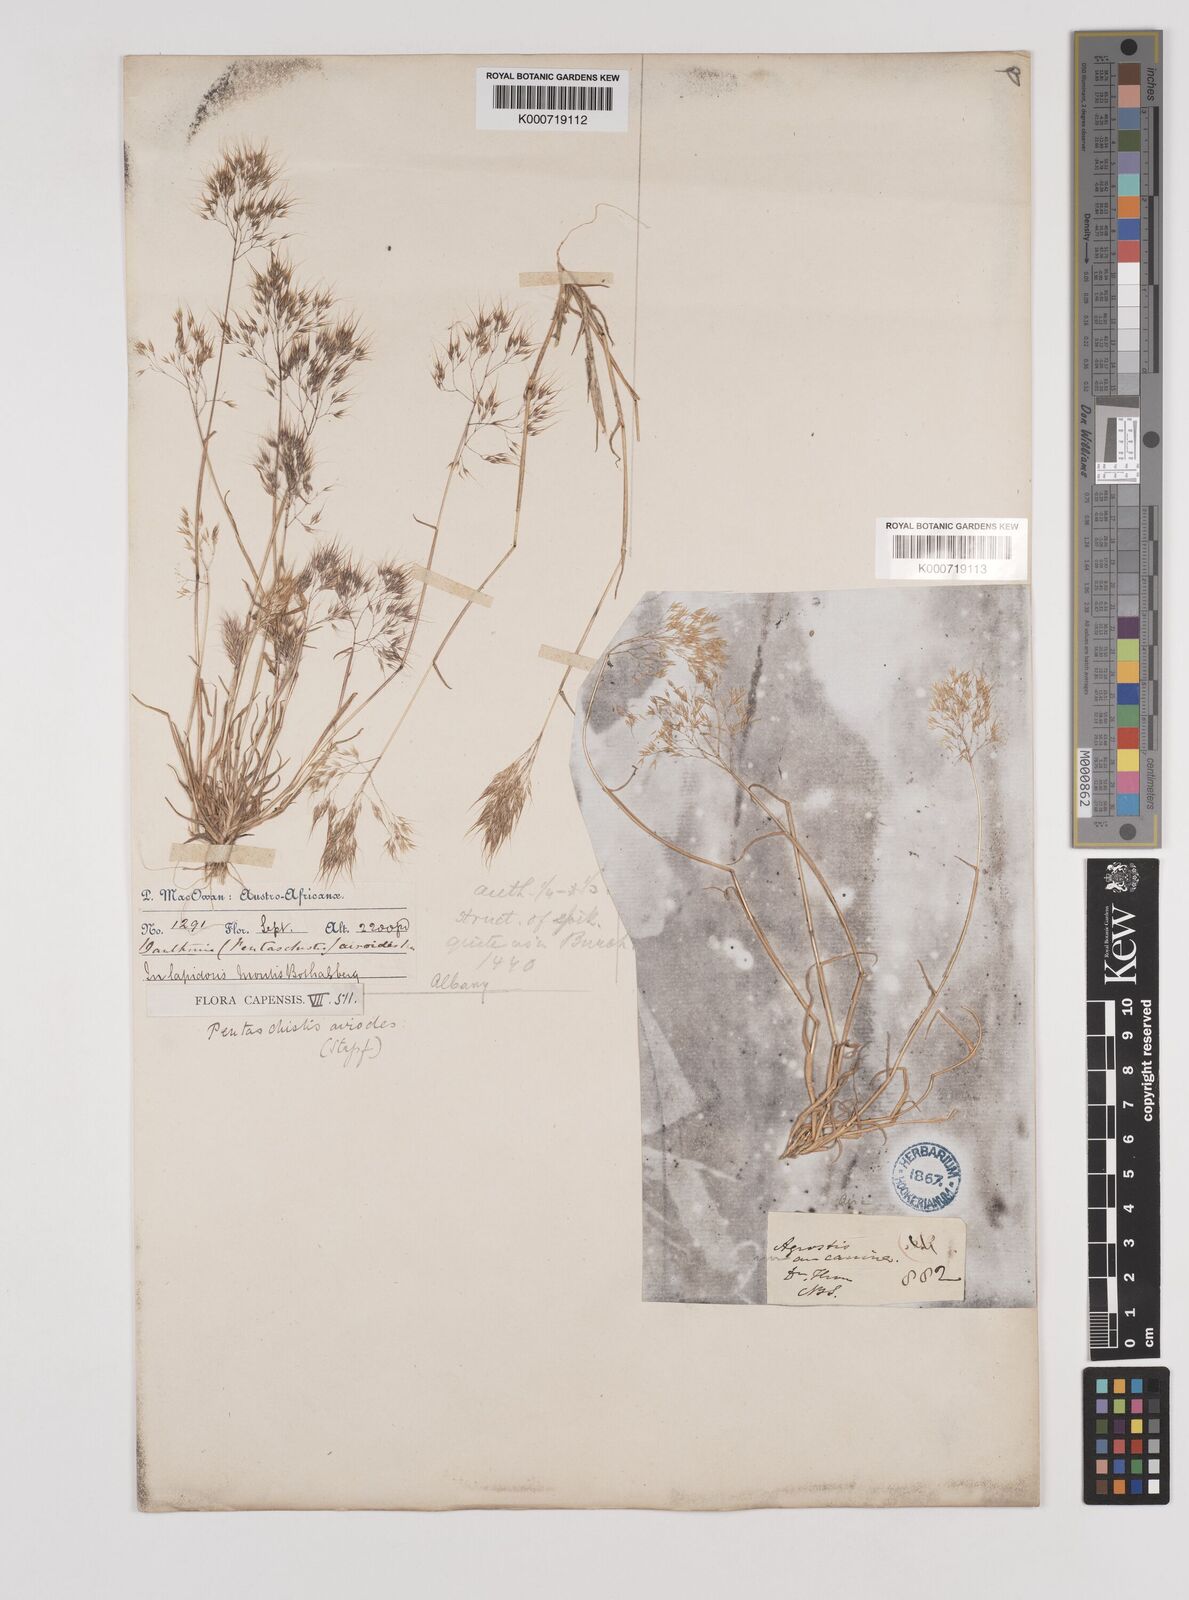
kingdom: Plantae
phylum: Tracheophyta
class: Liliopsida
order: Poales
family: Poaceae
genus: Pentameris
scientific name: Pentameris airoides
